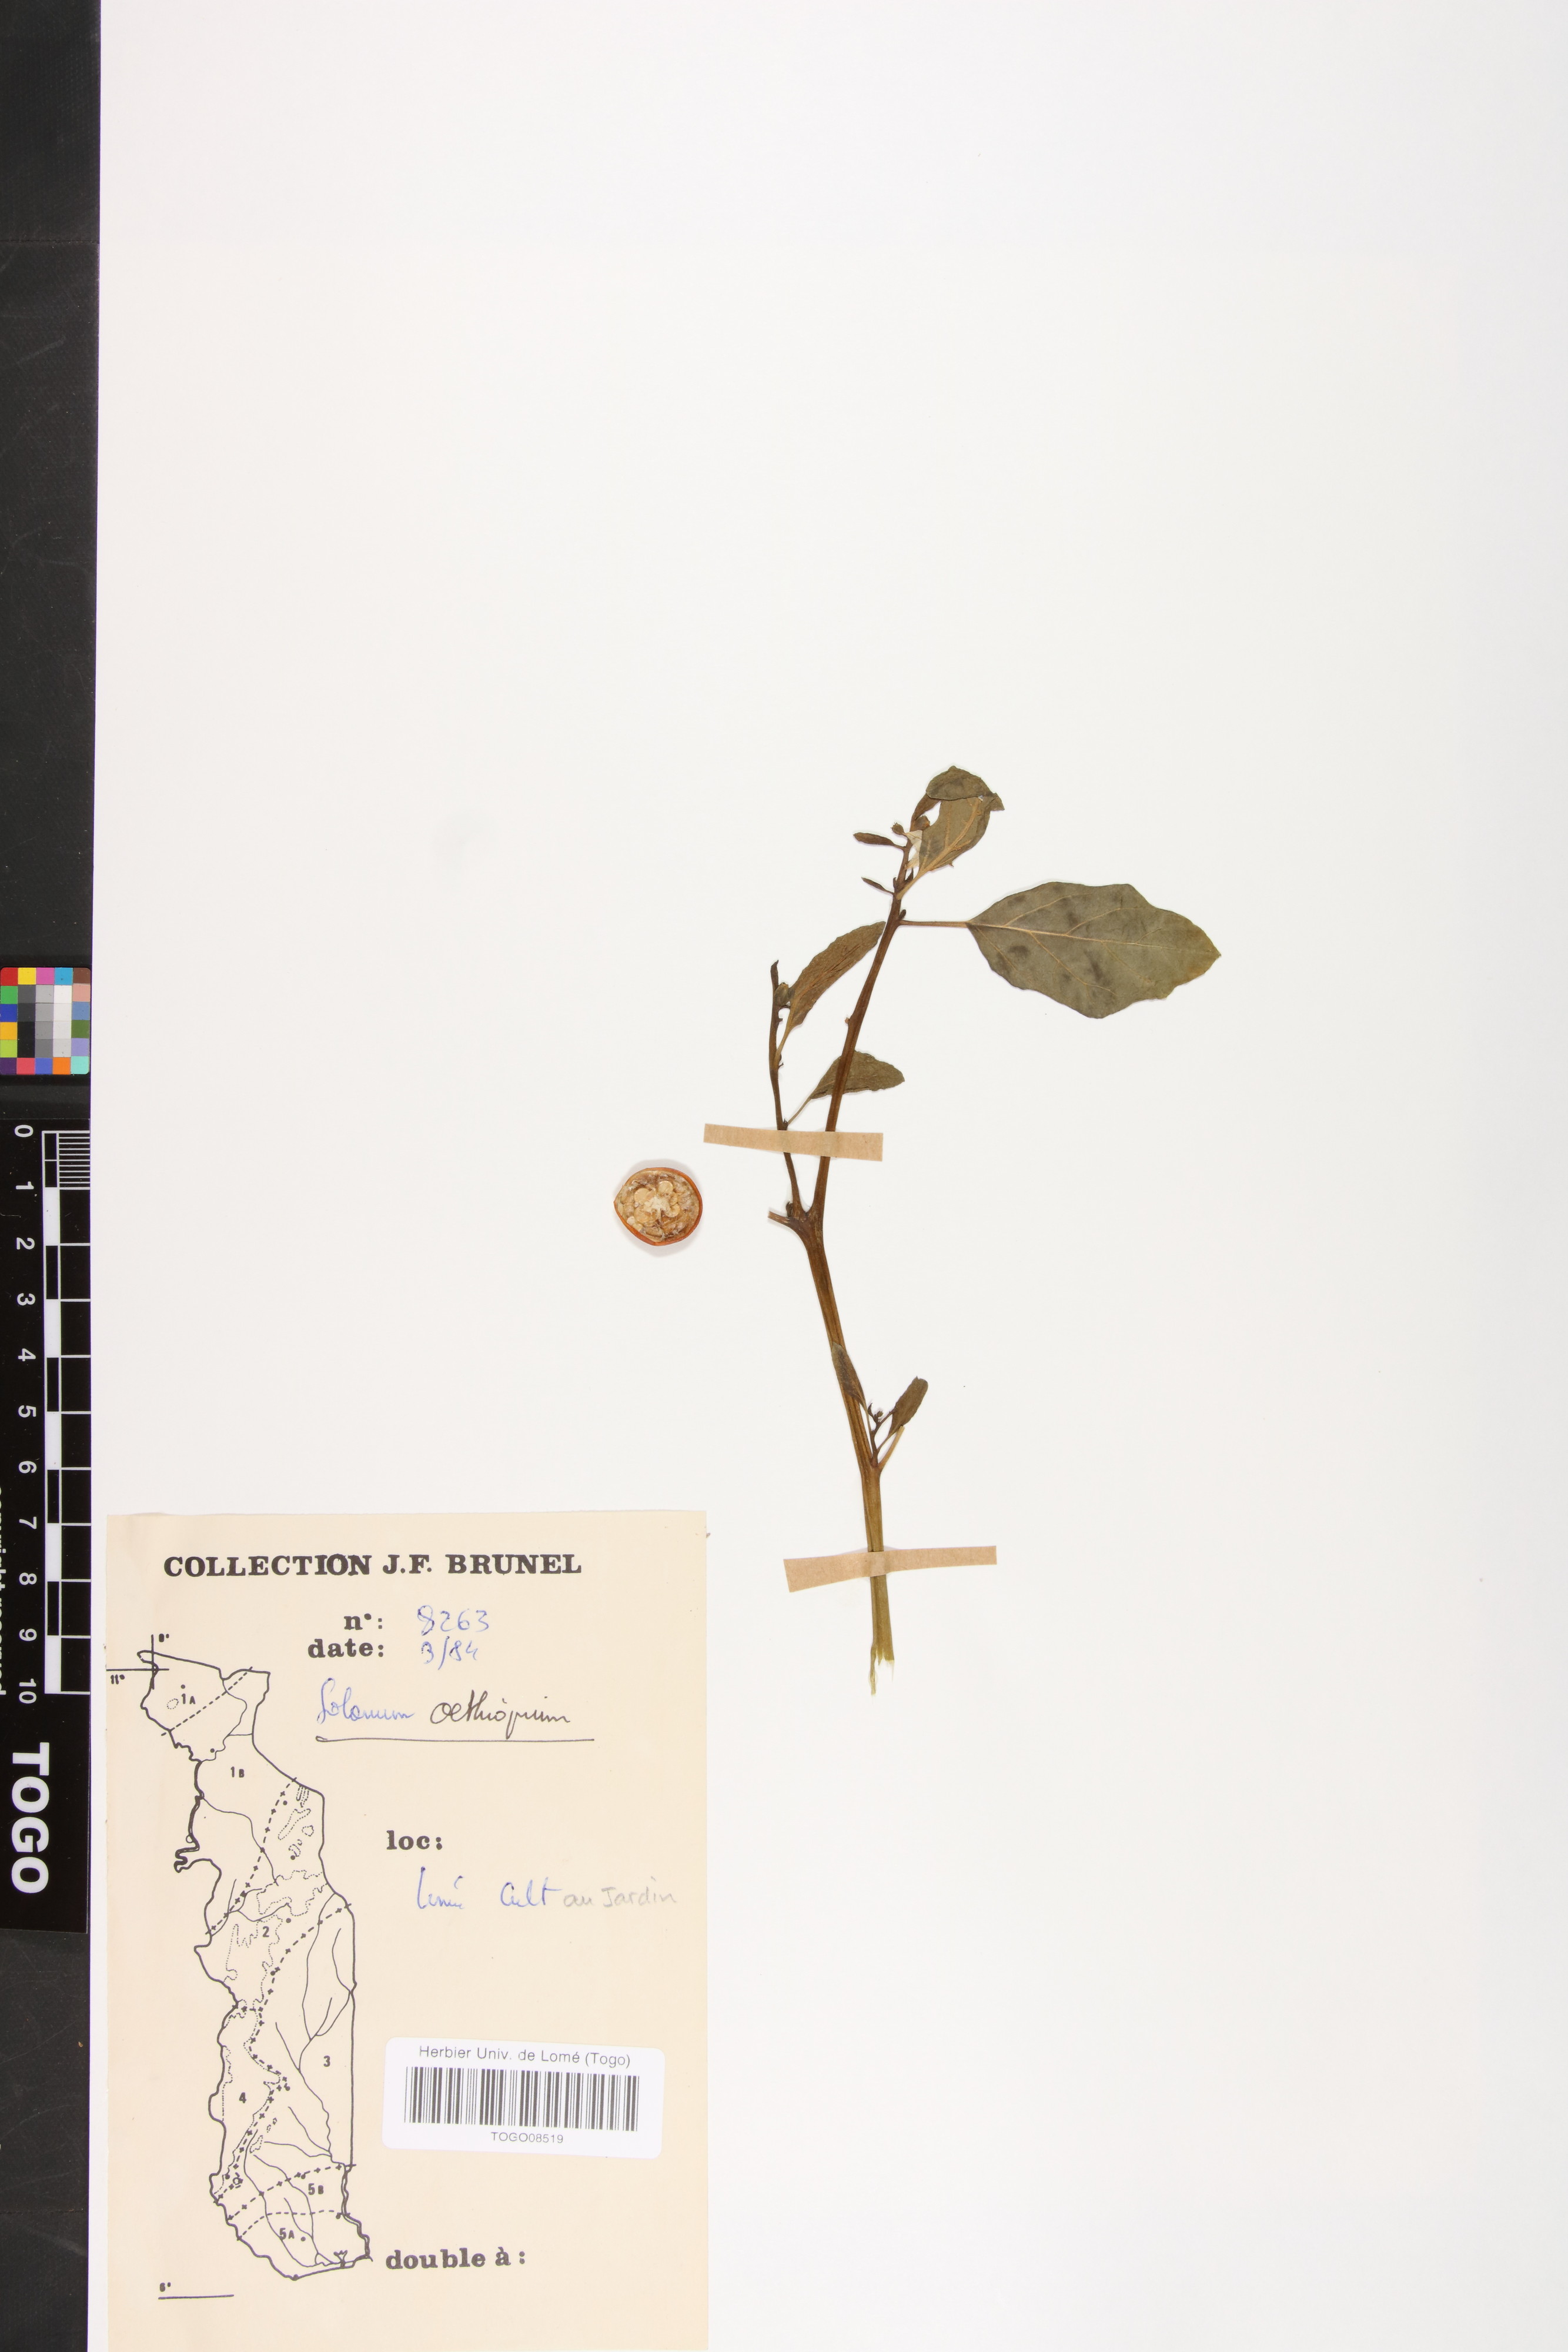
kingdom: Plantae
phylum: Tracheophyta
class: Magnoliopsida
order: Solanales
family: Solanaceae
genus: Solanum
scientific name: Solanum aethiopicum
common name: Gilo
